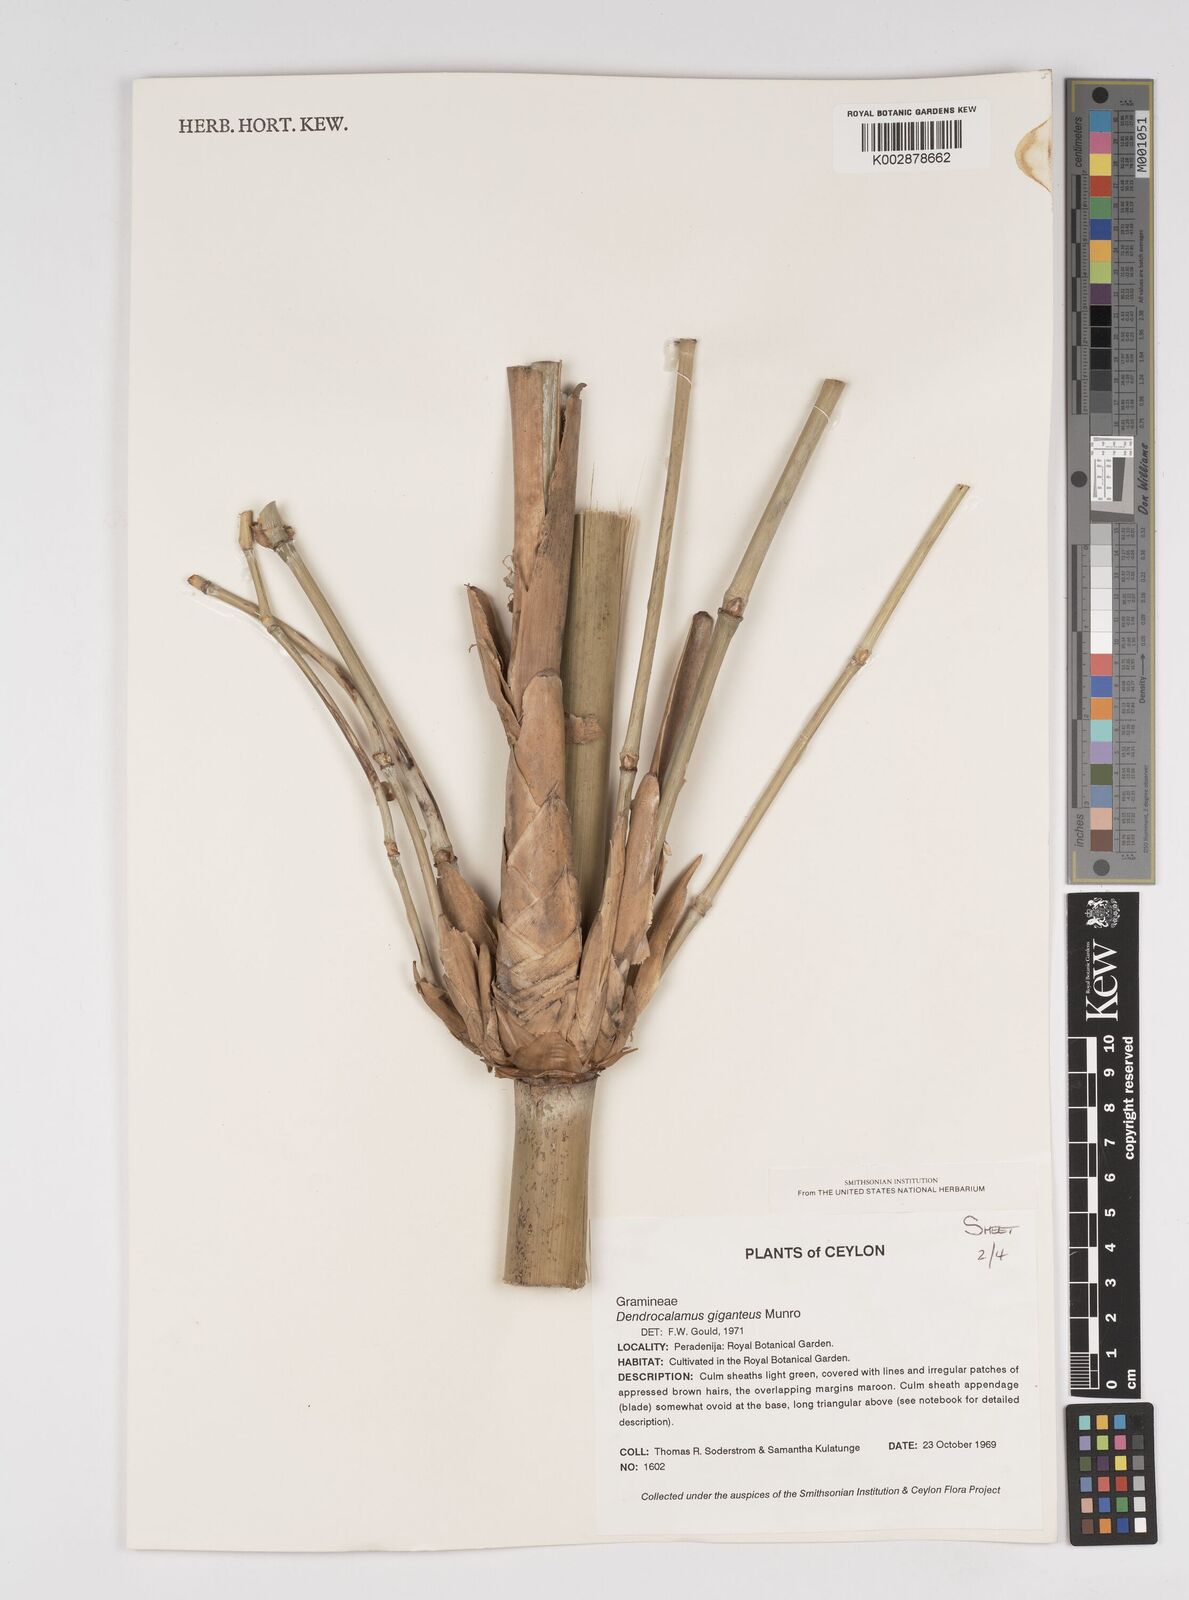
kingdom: Plantae
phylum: Tracheophyta
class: Liliopsida
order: Poales
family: Poaceae
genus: Dendrocalamus
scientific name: Dendrocalamus giganteus
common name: Giant bamboo
